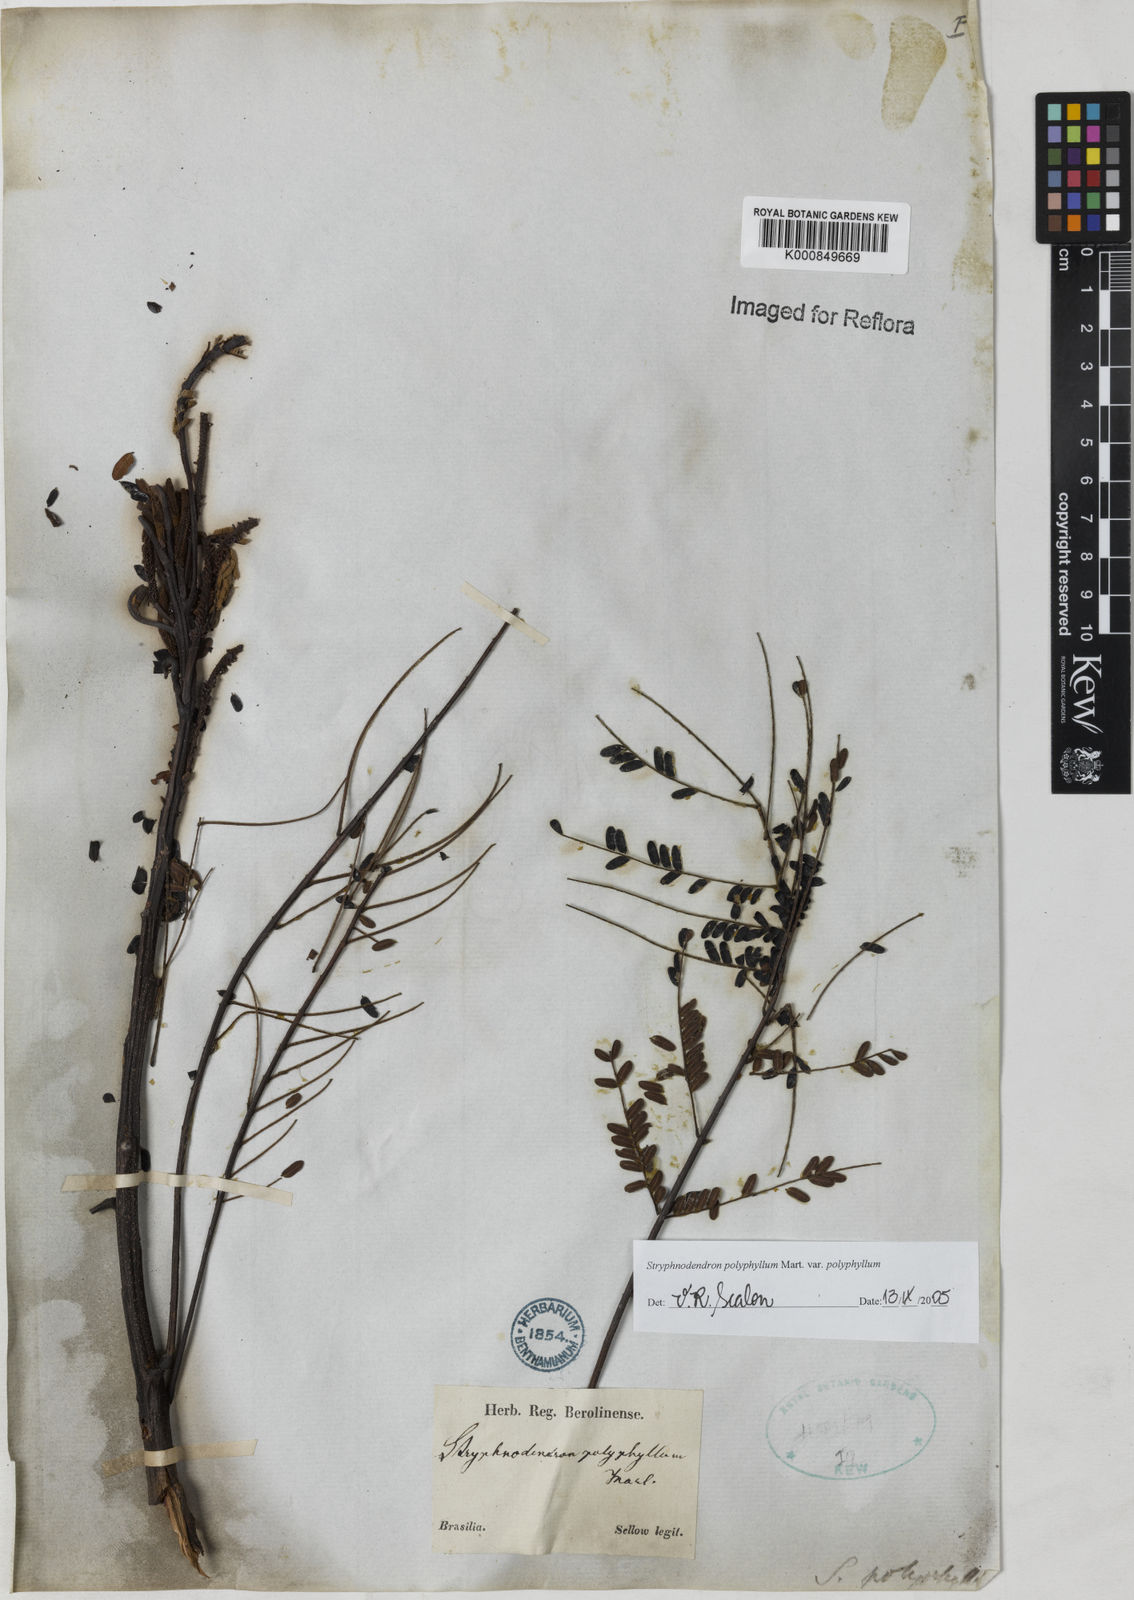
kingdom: Plantae
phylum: Tracheophyta
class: Magnoliopsida
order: Fabales
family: Fabaceae
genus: Stryphnodendron
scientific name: Stryphnodendron polyphyllum
